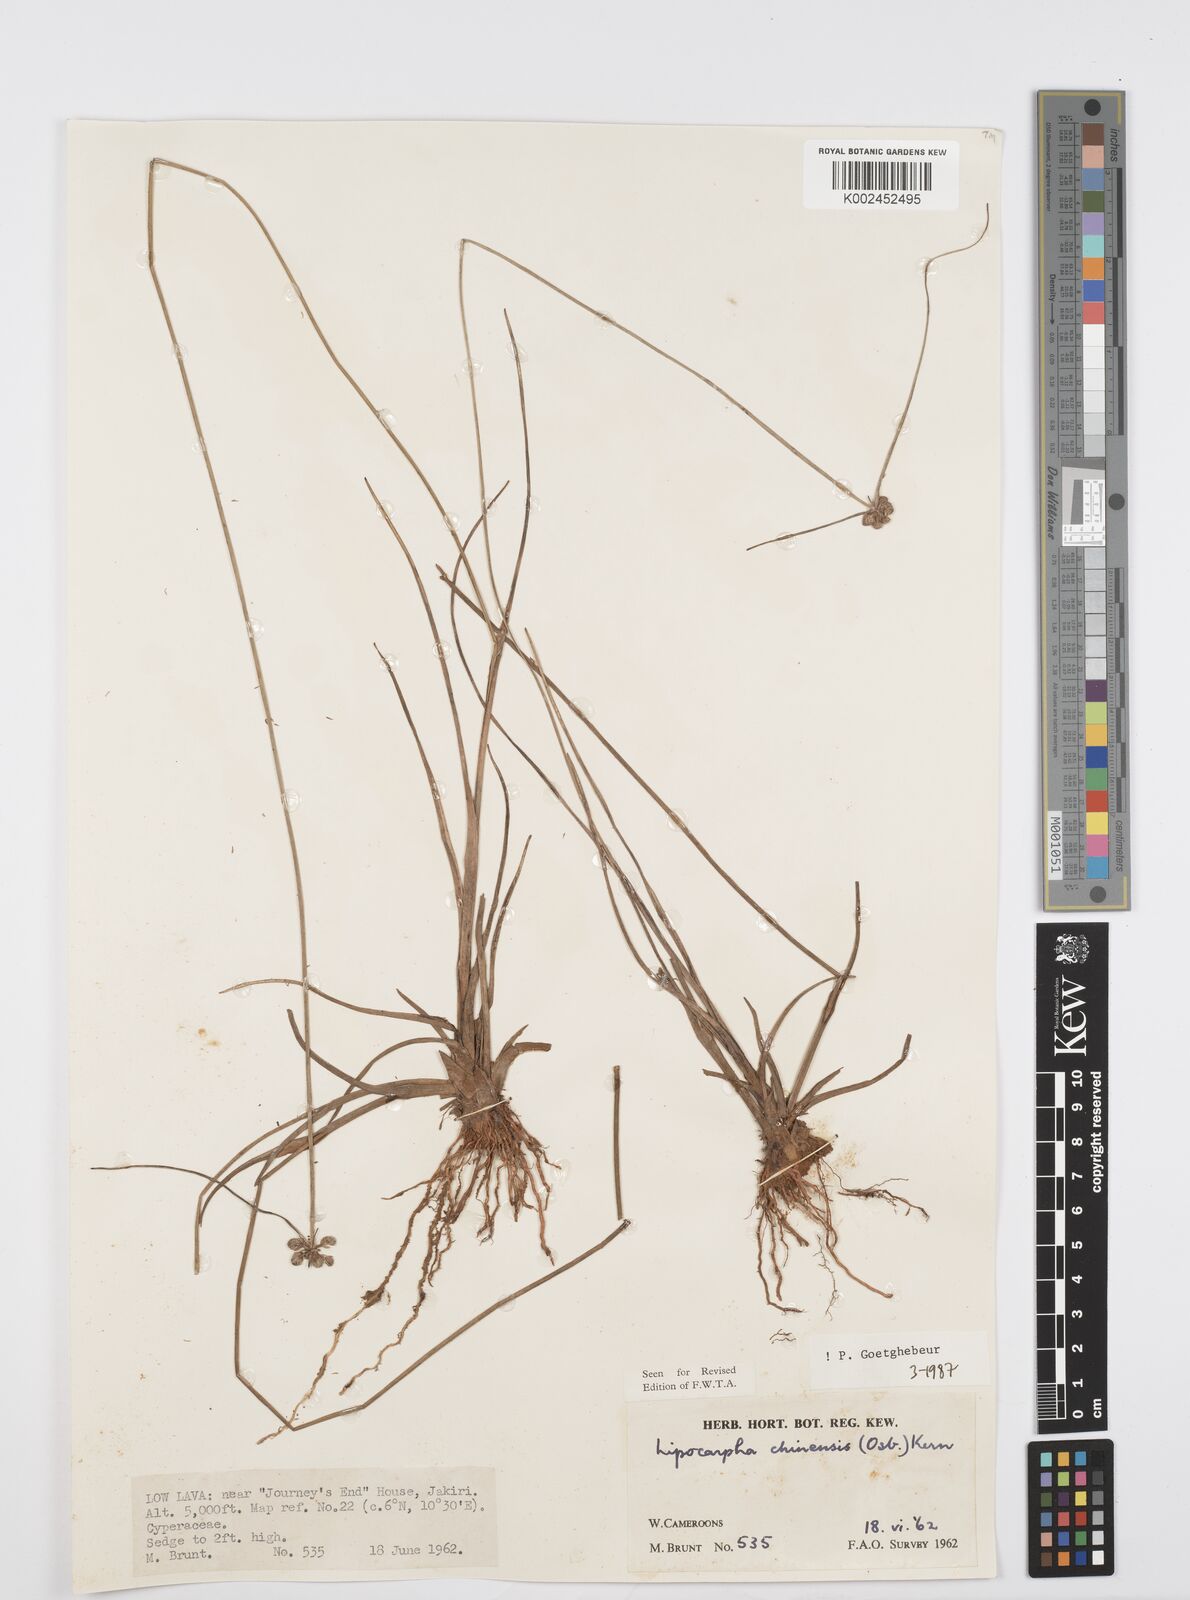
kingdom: Plantae
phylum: Tracheophyta
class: Liliopsida
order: Poales
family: Cyperaceae
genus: Cyperus
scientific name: Cyperus albescens
